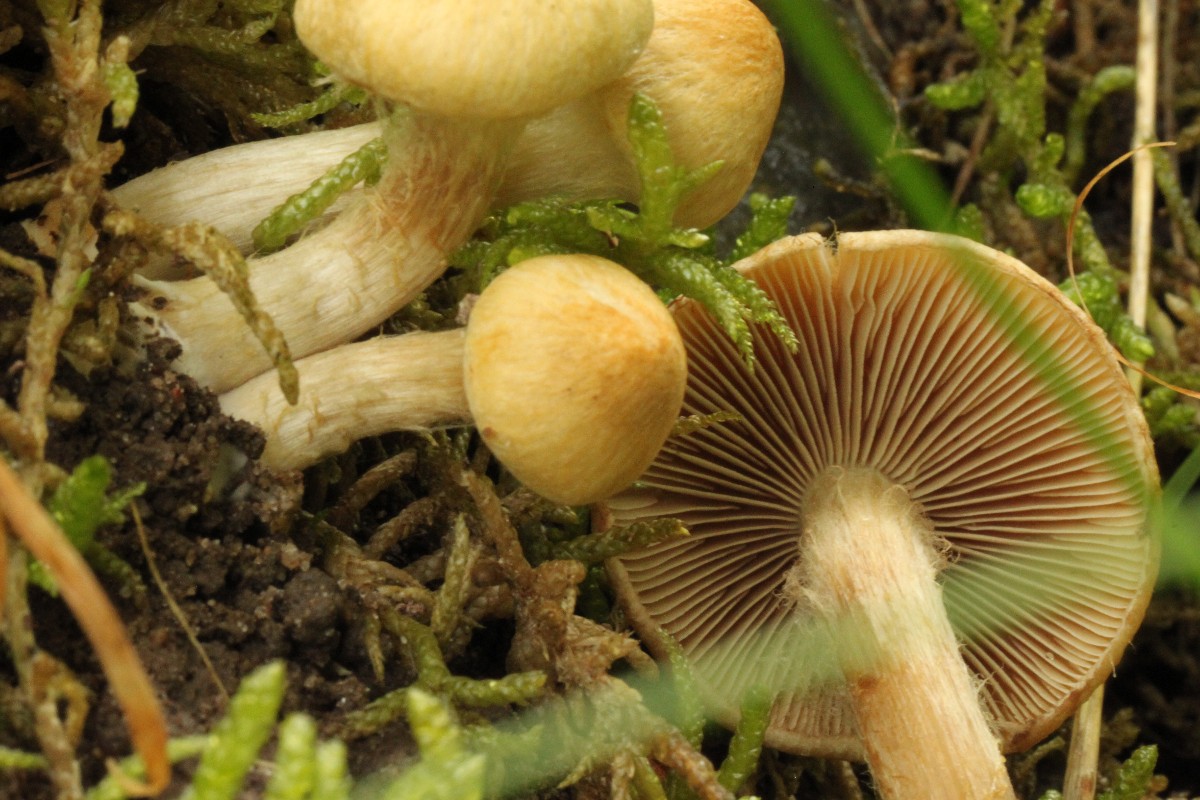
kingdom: Fungi
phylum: Basidiomycota
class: Agaricomycetes
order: Agaricales
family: Inocybaceae
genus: Mallocybe
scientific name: Mallocybe agardhii
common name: Agardhs trævlhat
